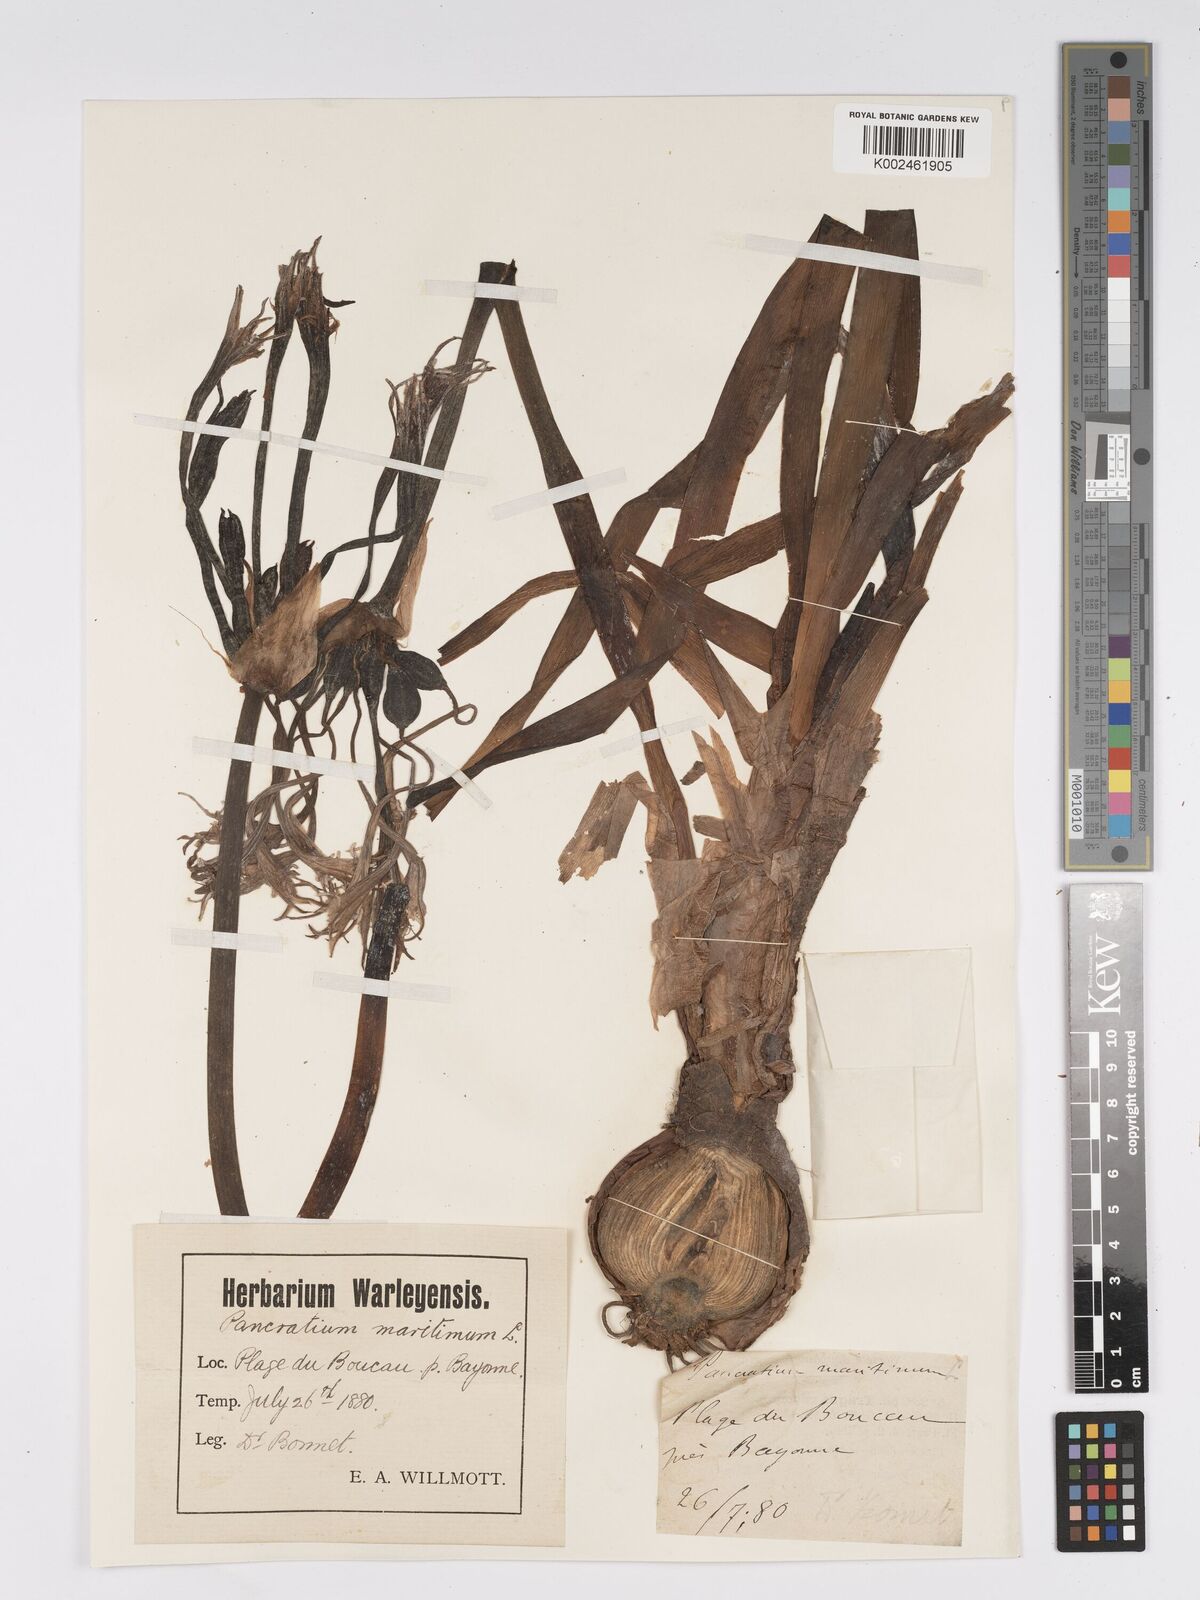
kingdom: Plantae
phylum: Tracheophyta
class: Liliopsida
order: Asparagales
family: Amaryllidaceae
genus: Pancratium
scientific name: Pancratium maritimum
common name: Sea-daffodil
